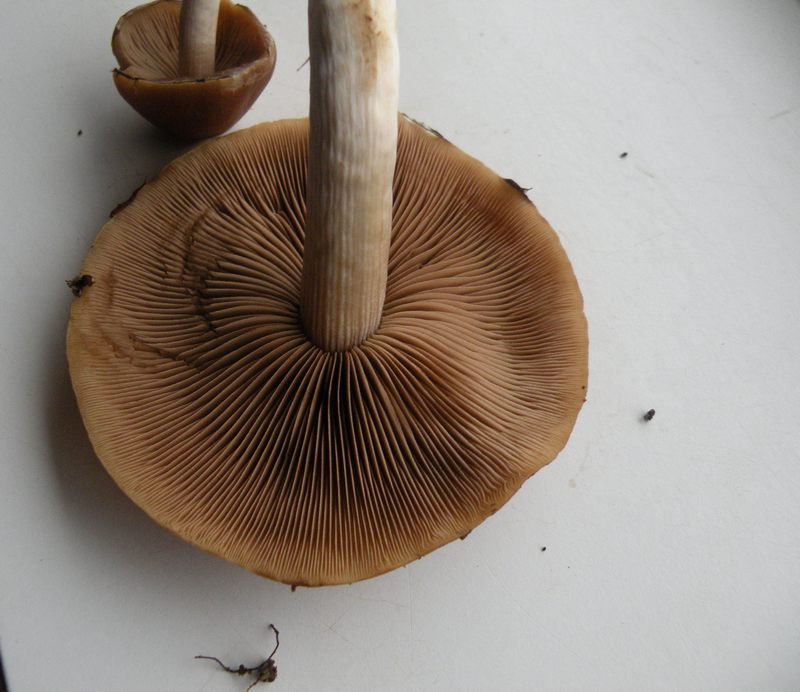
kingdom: Fungi
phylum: Basidiomycota
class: Agaricomycetes
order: Agaricales
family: Psathyrellaceae
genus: Homophron
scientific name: Homophron spadiceum
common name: daddelbrun mørkhat
